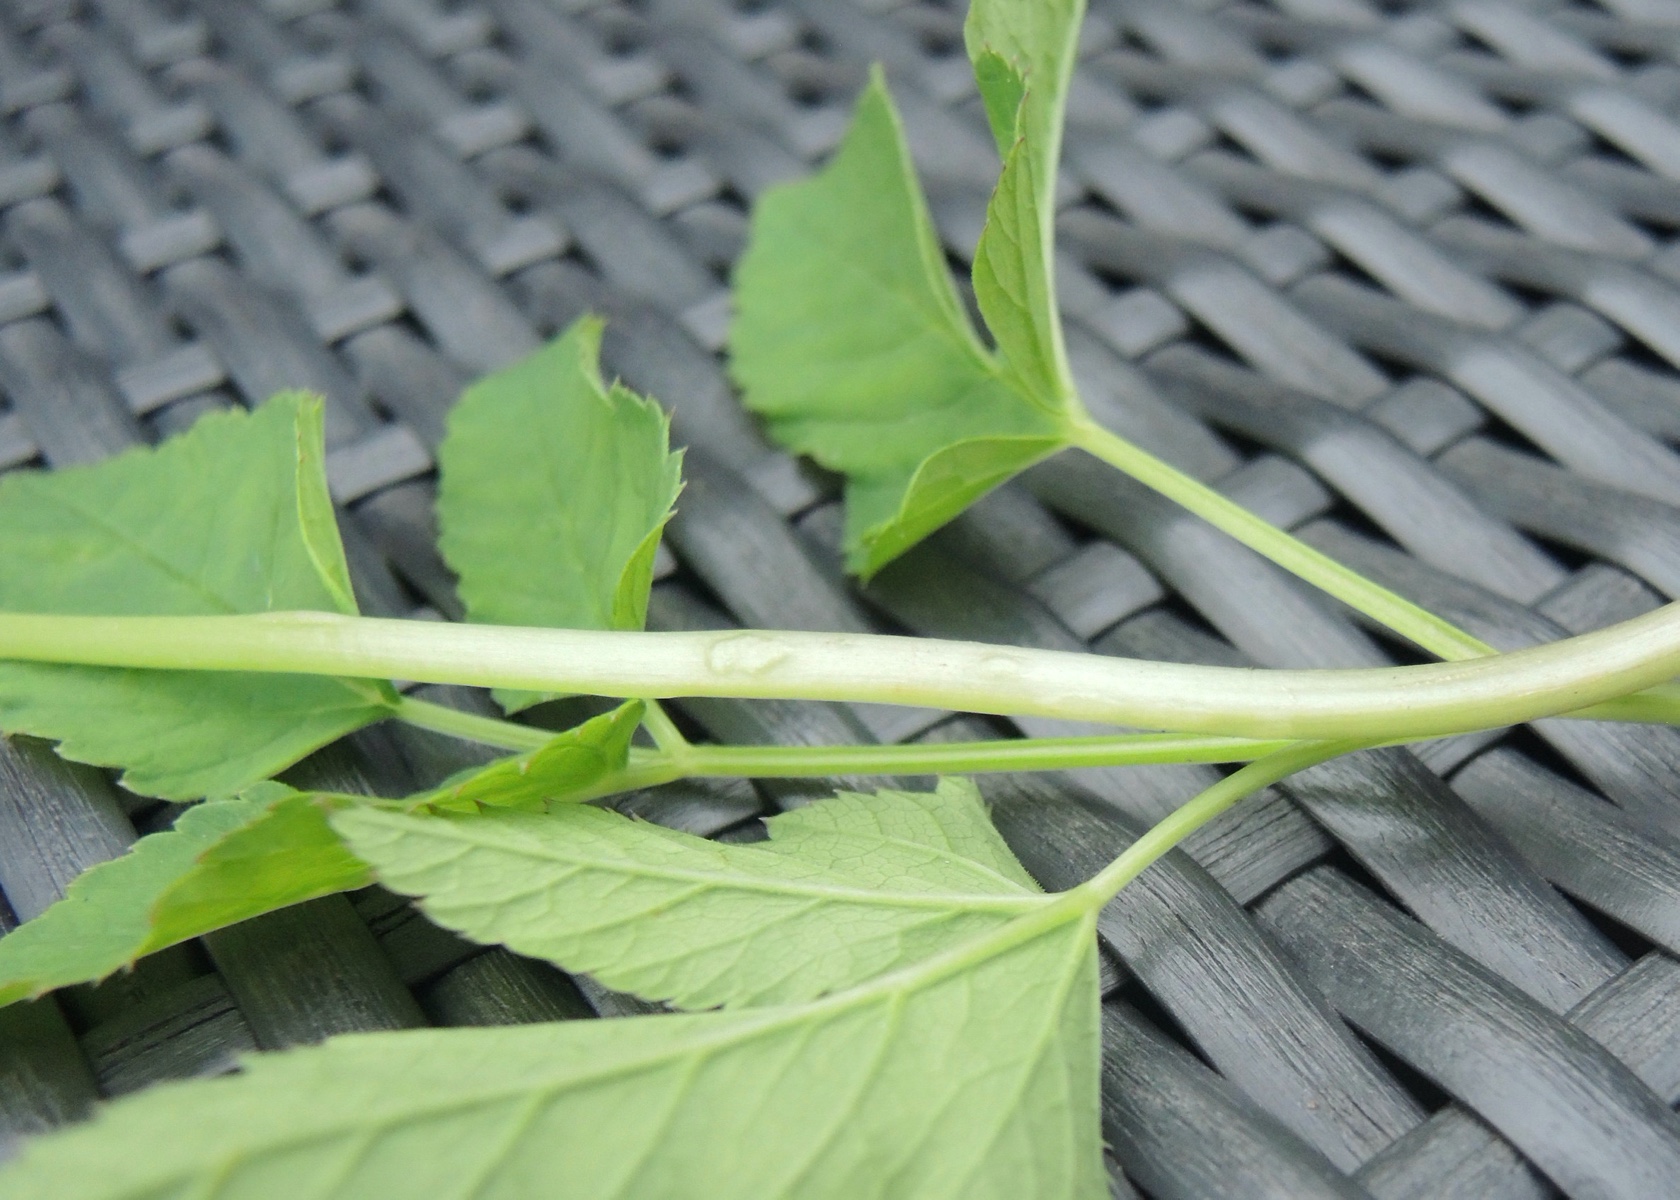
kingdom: Fungi
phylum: Ascomycota
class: Taphrinomycetes
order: Taphrinales
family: Taphrinaceae
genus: Protomyces
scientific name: Protomyces macrosporus
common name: skvalderkål-vablesæk
